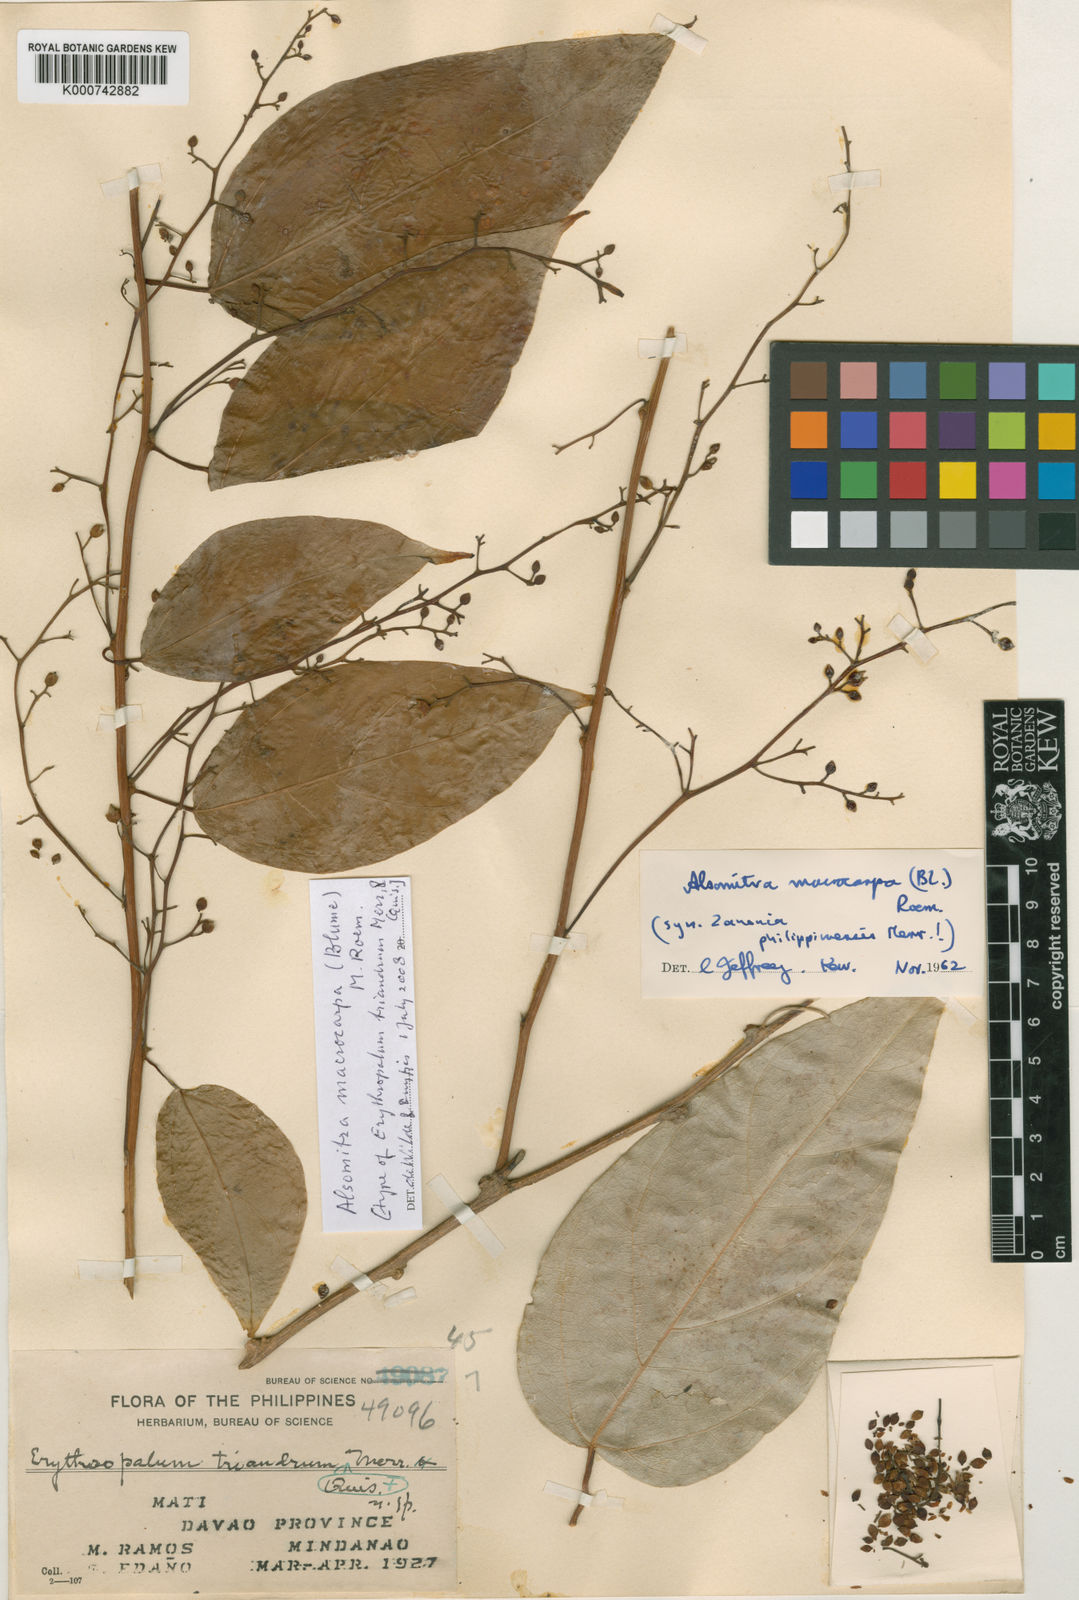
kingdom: Plantae
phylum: Tracheophyta
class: Magnoliopsida
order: Cucurbitales
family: Cucurbitaceae
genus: Alsomitra
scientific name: Alsomitra macrocarpa
